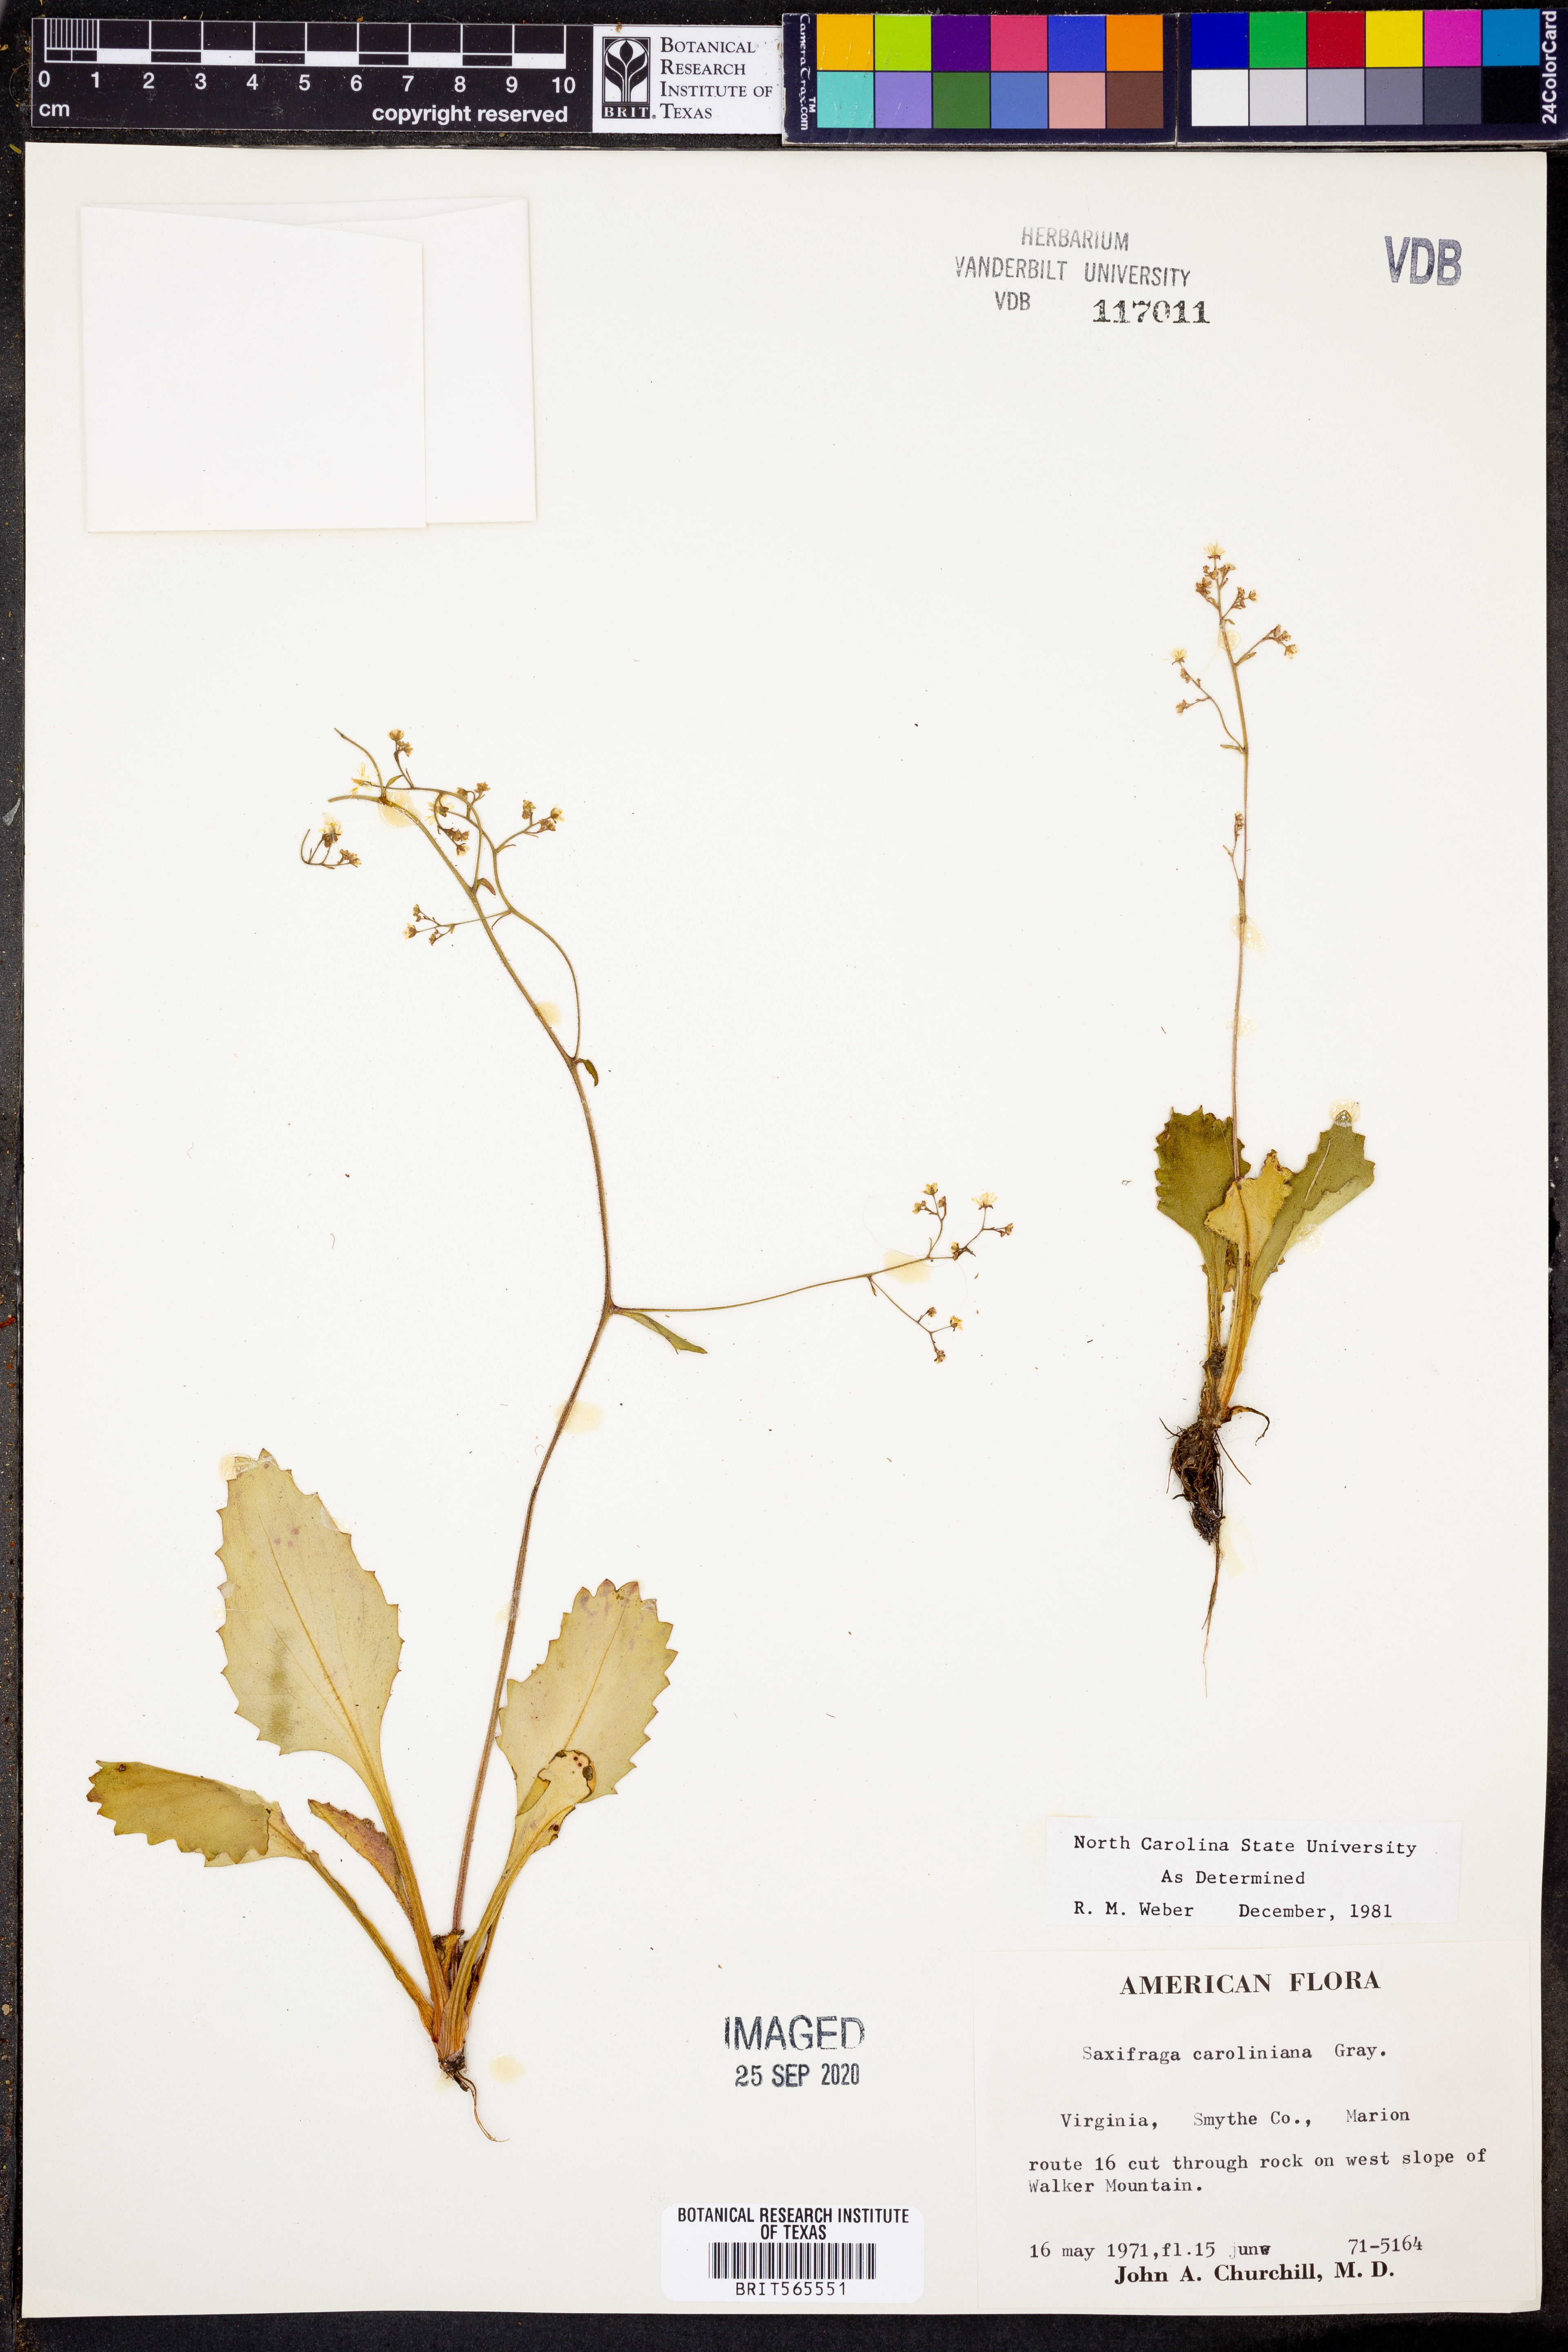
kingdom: Plantae
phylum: Tracheophyta
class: Magnoliopsida
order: Saxifragales
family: Saxifragaceae
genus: Micranthes
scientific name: Micranthes caroliniana
